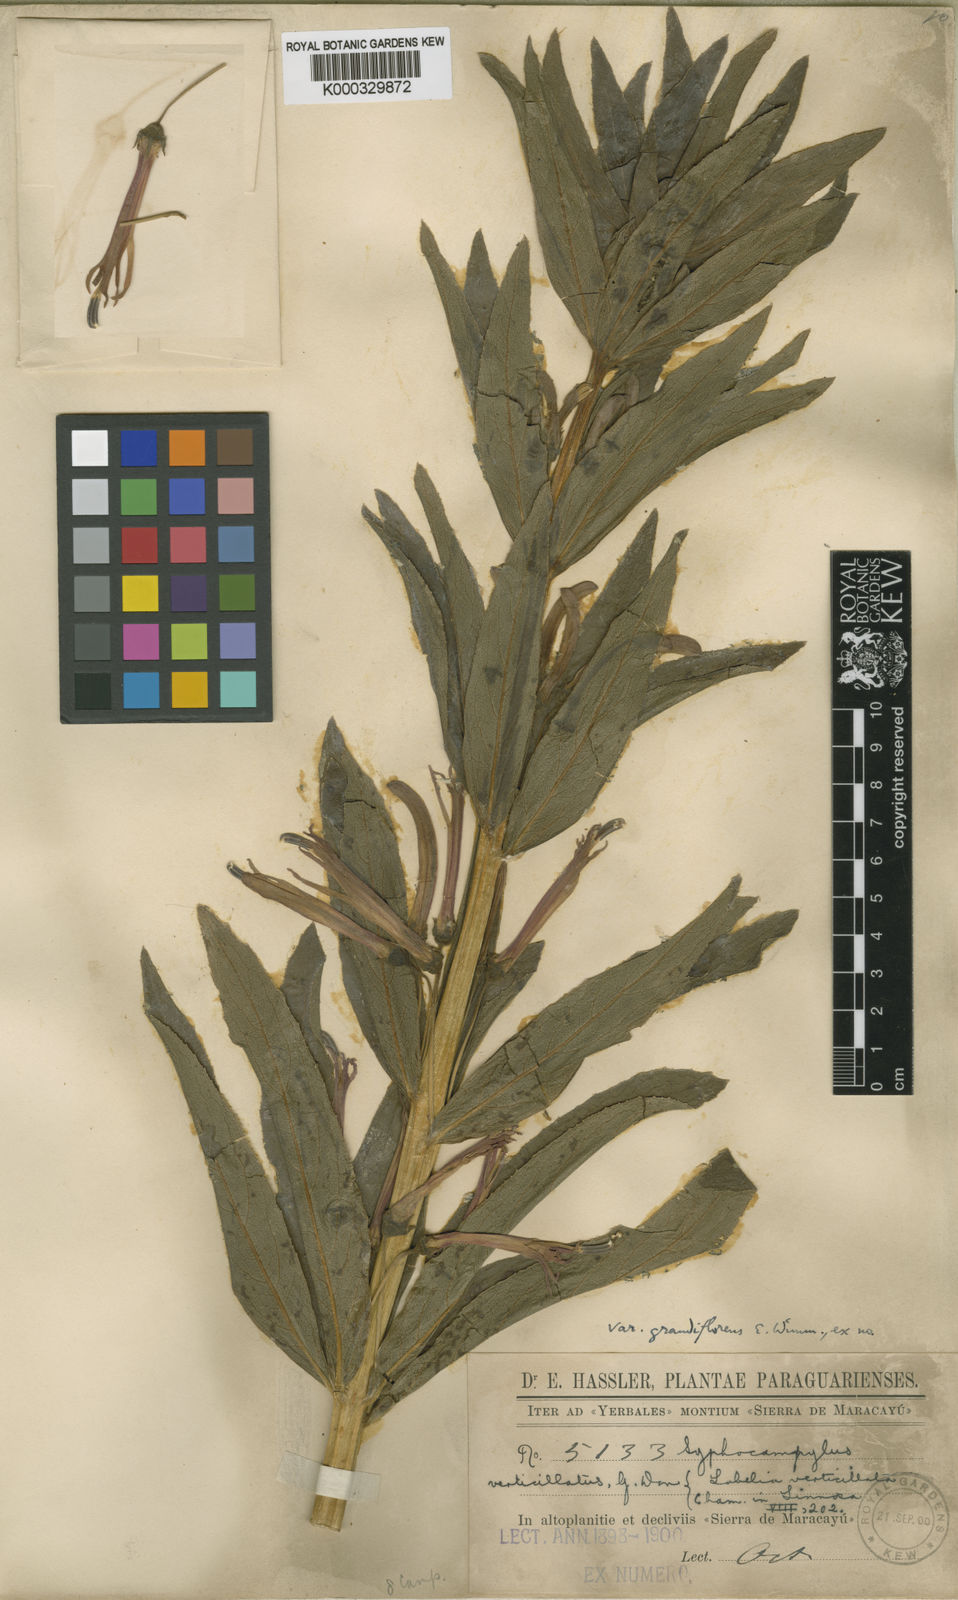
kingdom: Plantae
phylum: Tracheophyta
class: Magnoliopsida
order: Asterales
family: Campanulaceae
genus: Siphocampylus
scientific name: Siphocampylus verticillatus
